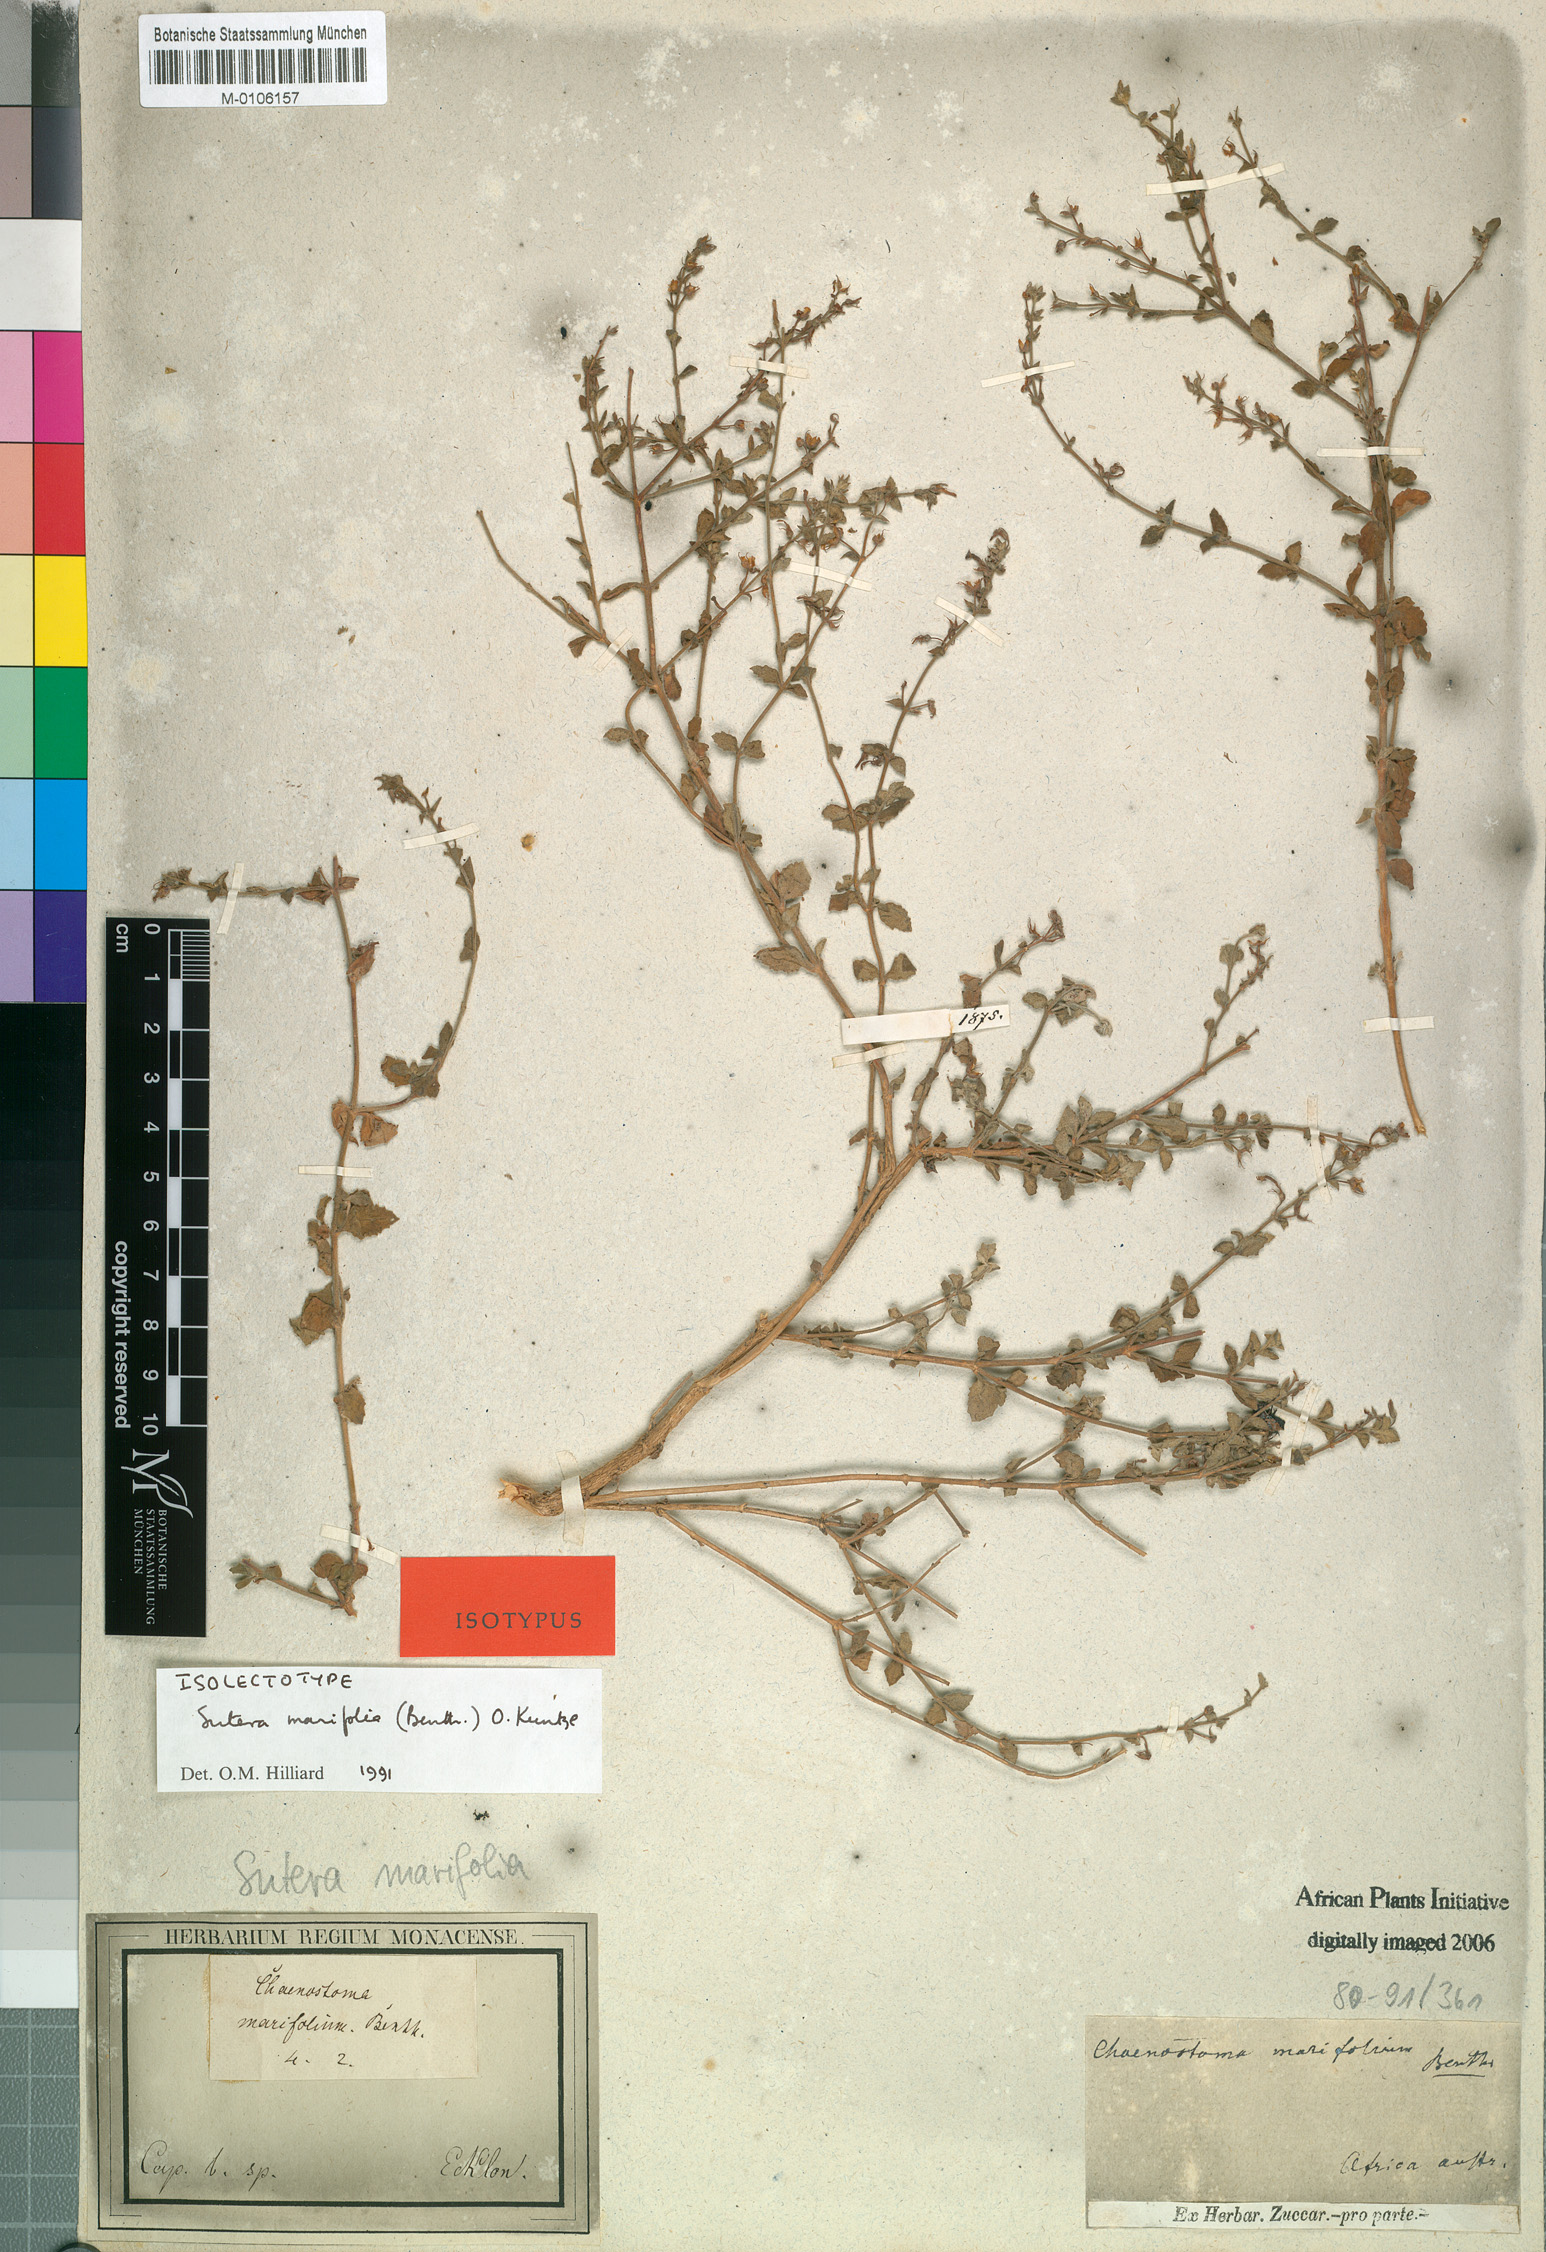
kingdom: Plantae
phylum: Tracheophyta
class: Magnoliopsida
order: Lamiales
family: Scrophulariaceae
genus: Chaenostoma
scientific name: Chaenostoma marifolium
